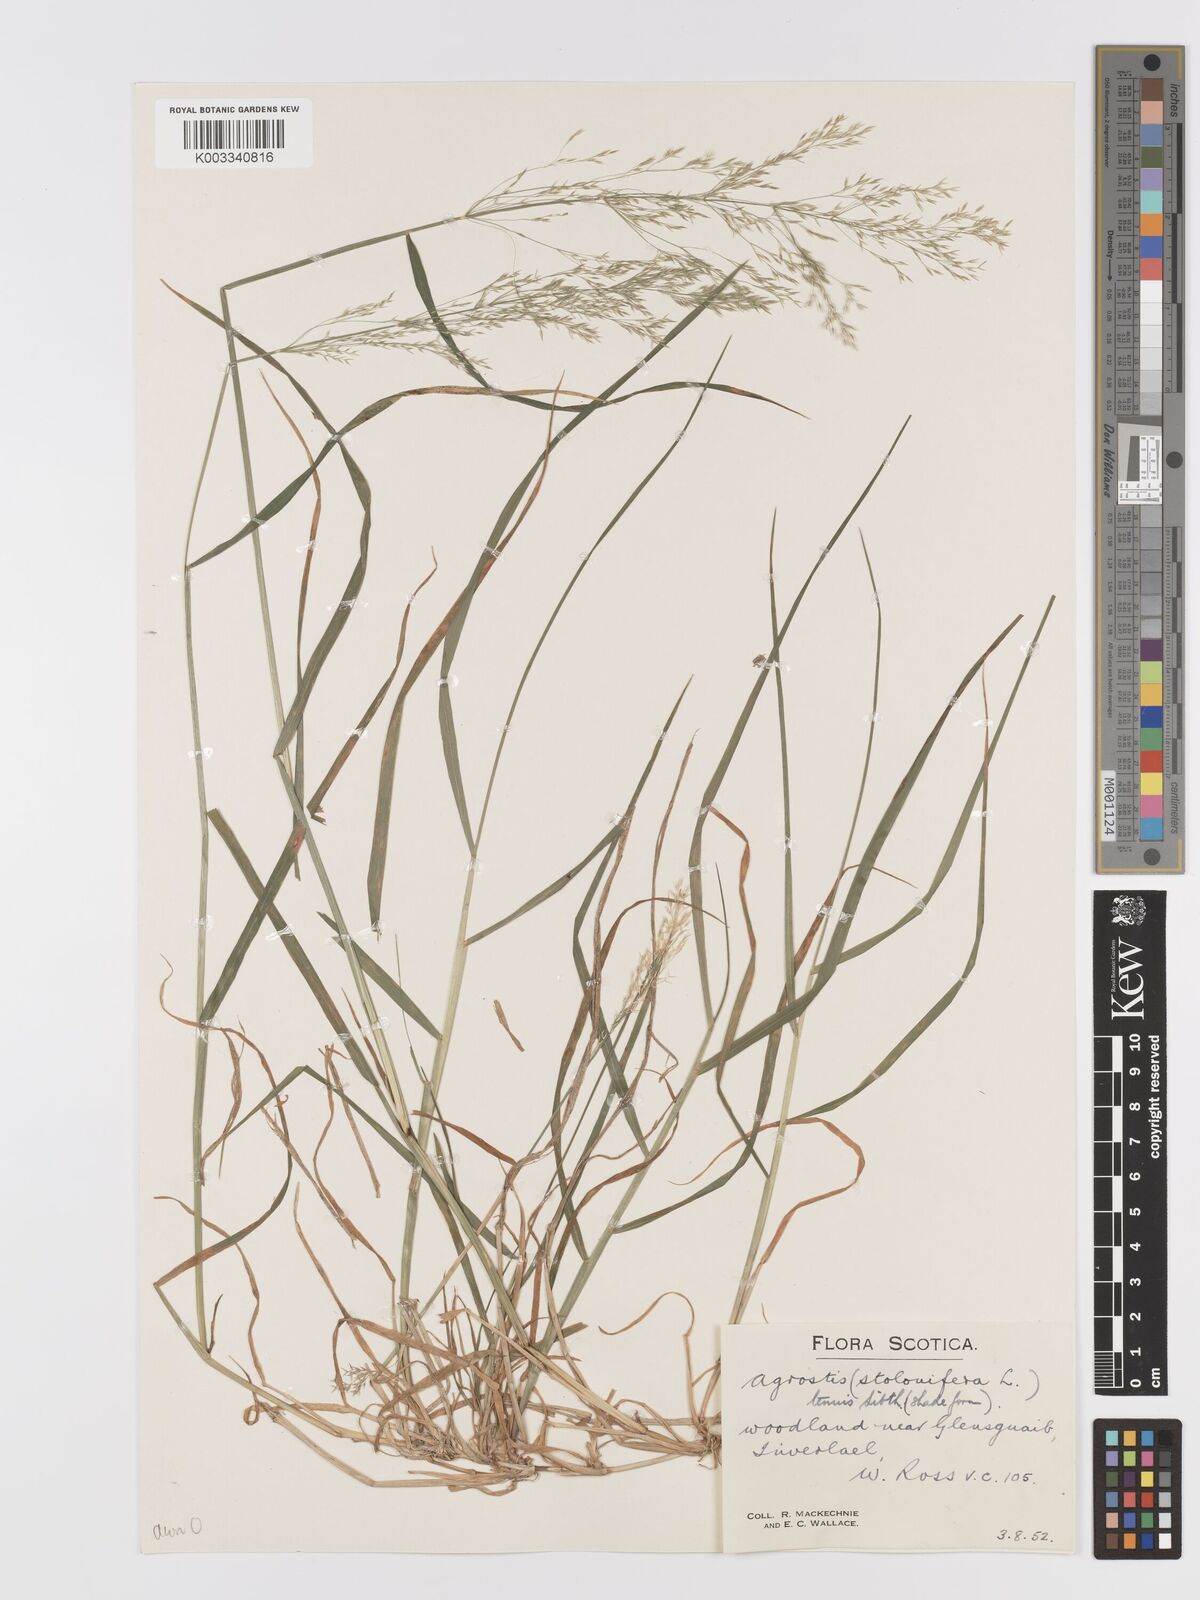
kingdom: Plantae
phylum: Tracheophyta
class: Liliopsida
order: Poales
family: Poaceae
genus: Agrostis
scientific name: Agrostis capillaris
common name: Colonial bentgrass
